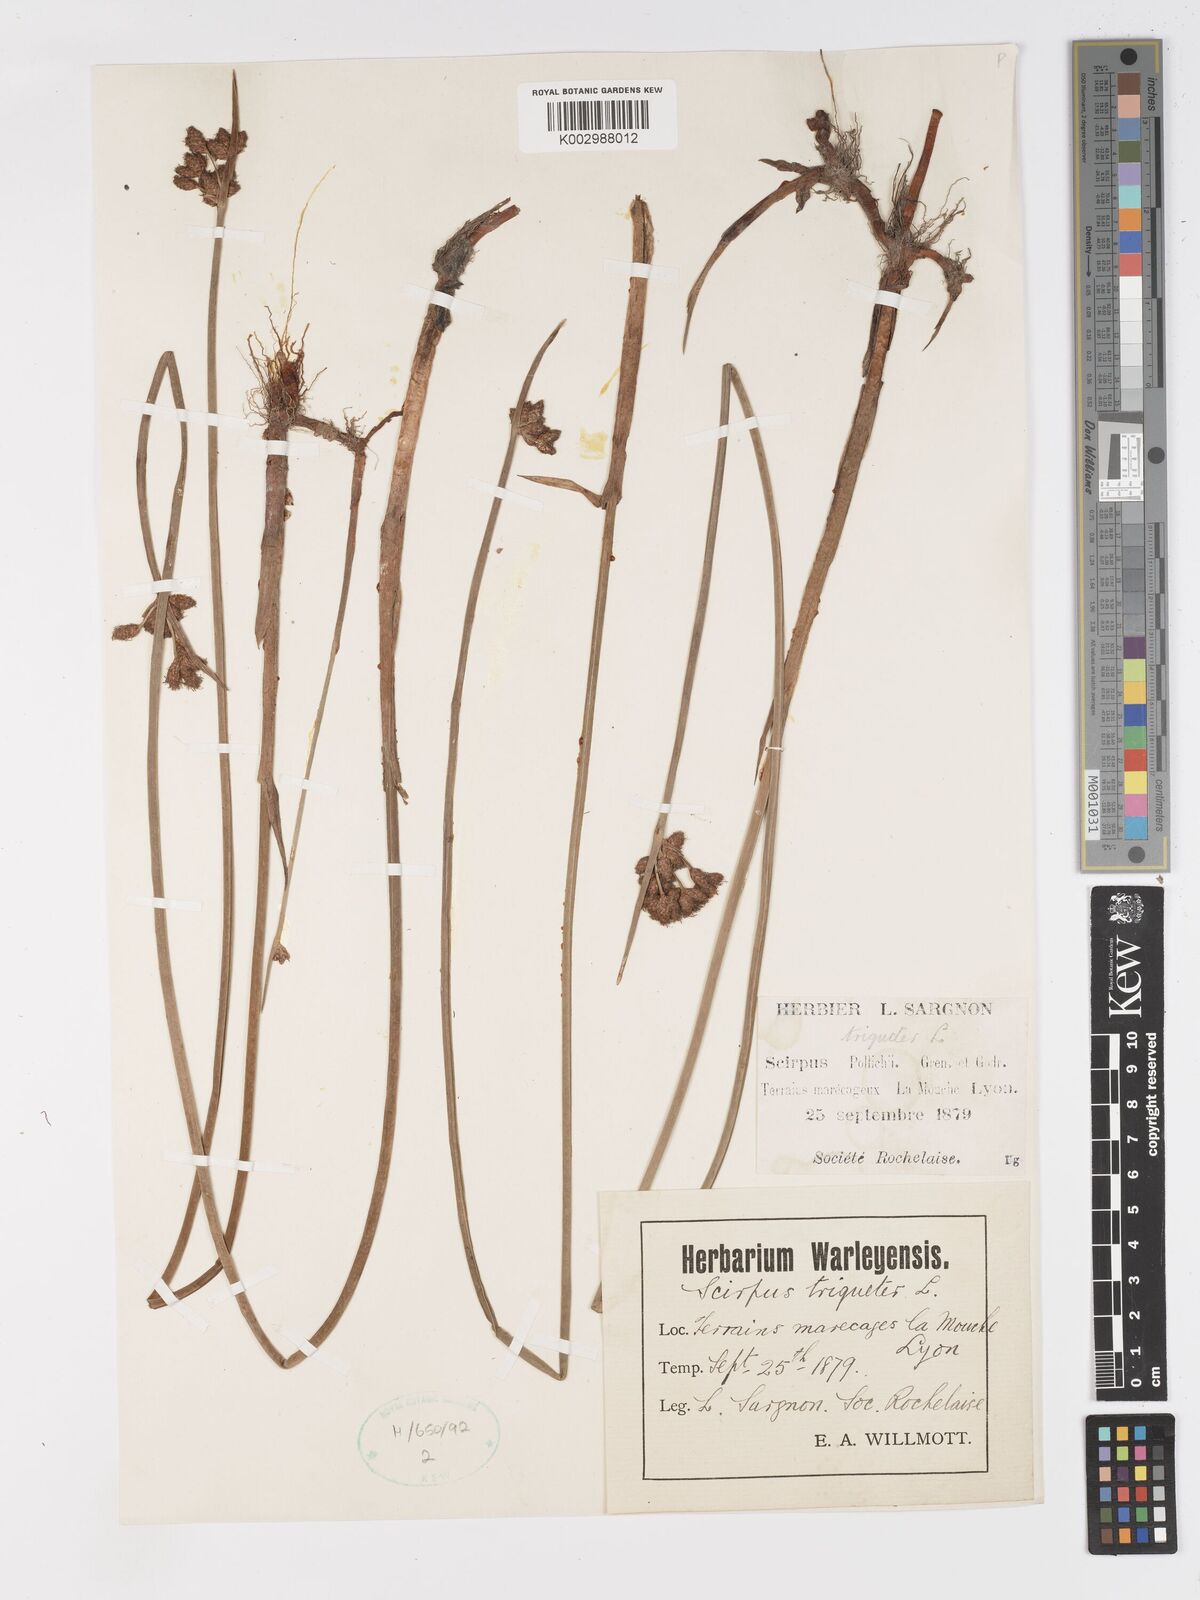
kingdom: Plantae
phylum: Tracheophyta
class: Liliopsida
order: Poales
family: Cyperaceae
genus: Schoenoplectus
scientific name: Schoenoplectus triqueter
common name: Triangular club-rush
